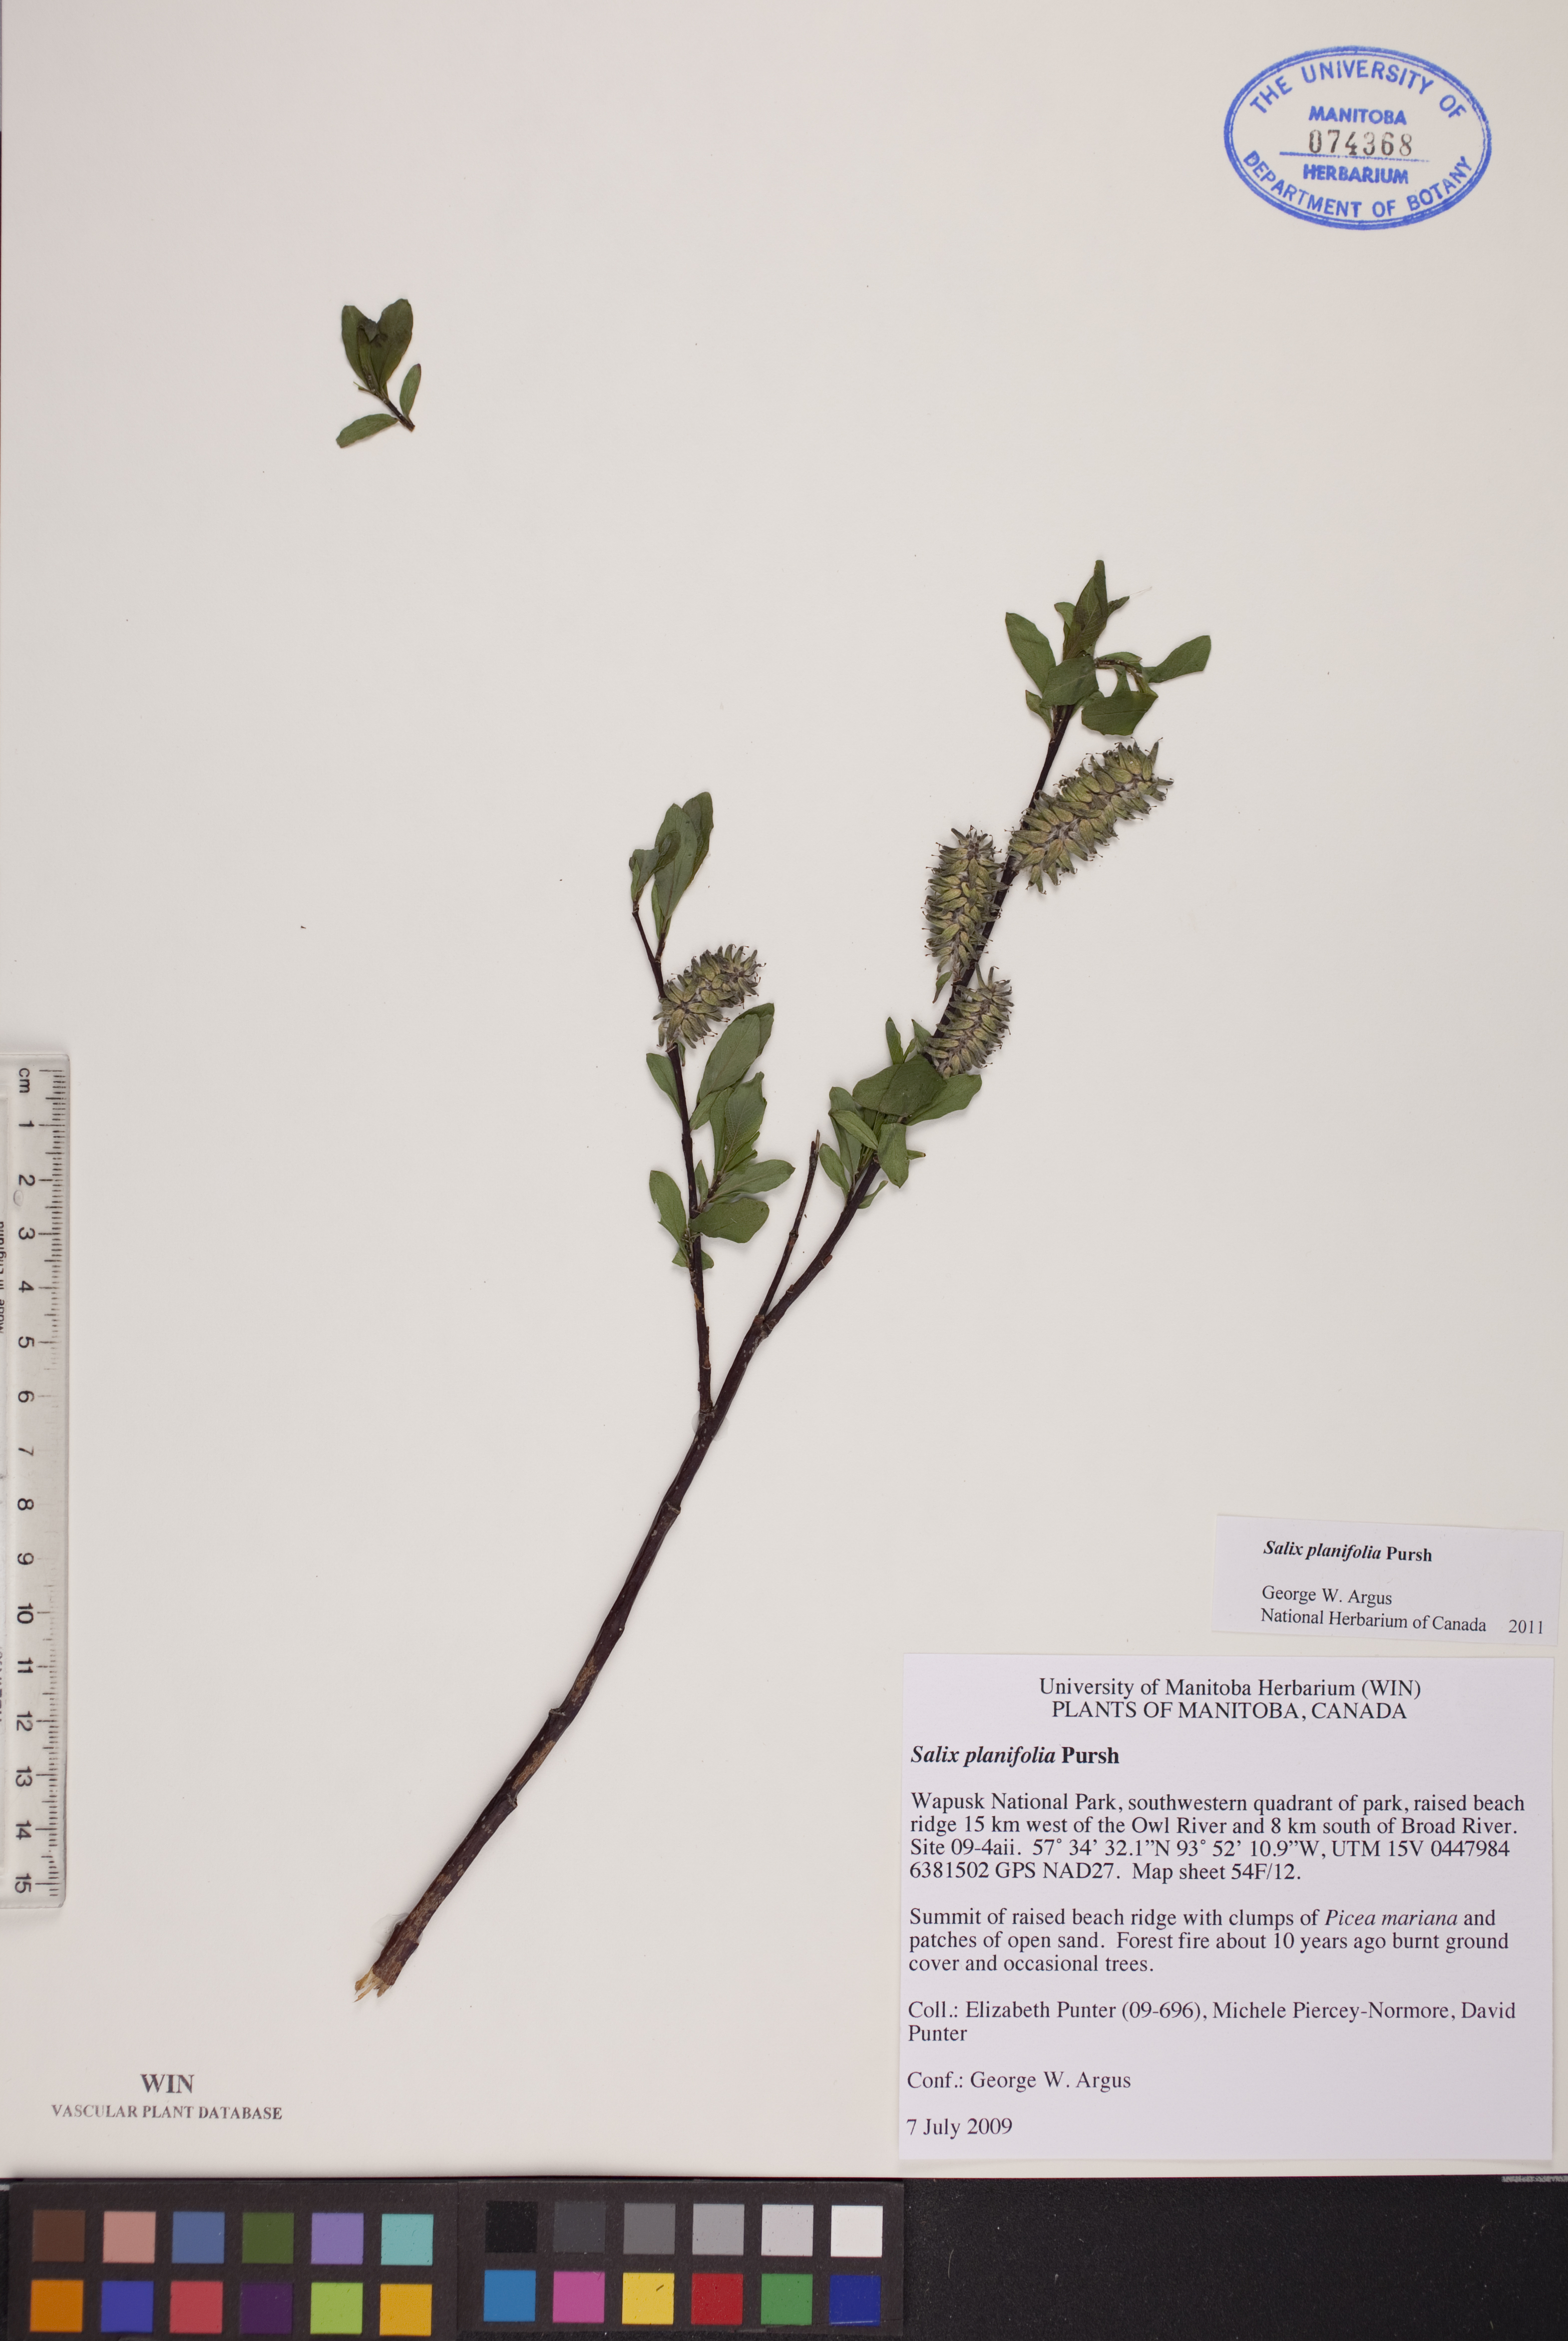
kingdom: Plantae
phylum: Tracheophyta
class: Magnoliopsida
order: Malpighiales
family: Salicaceae
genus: Salix
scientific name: Salix planifolia
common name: Mountain willow
